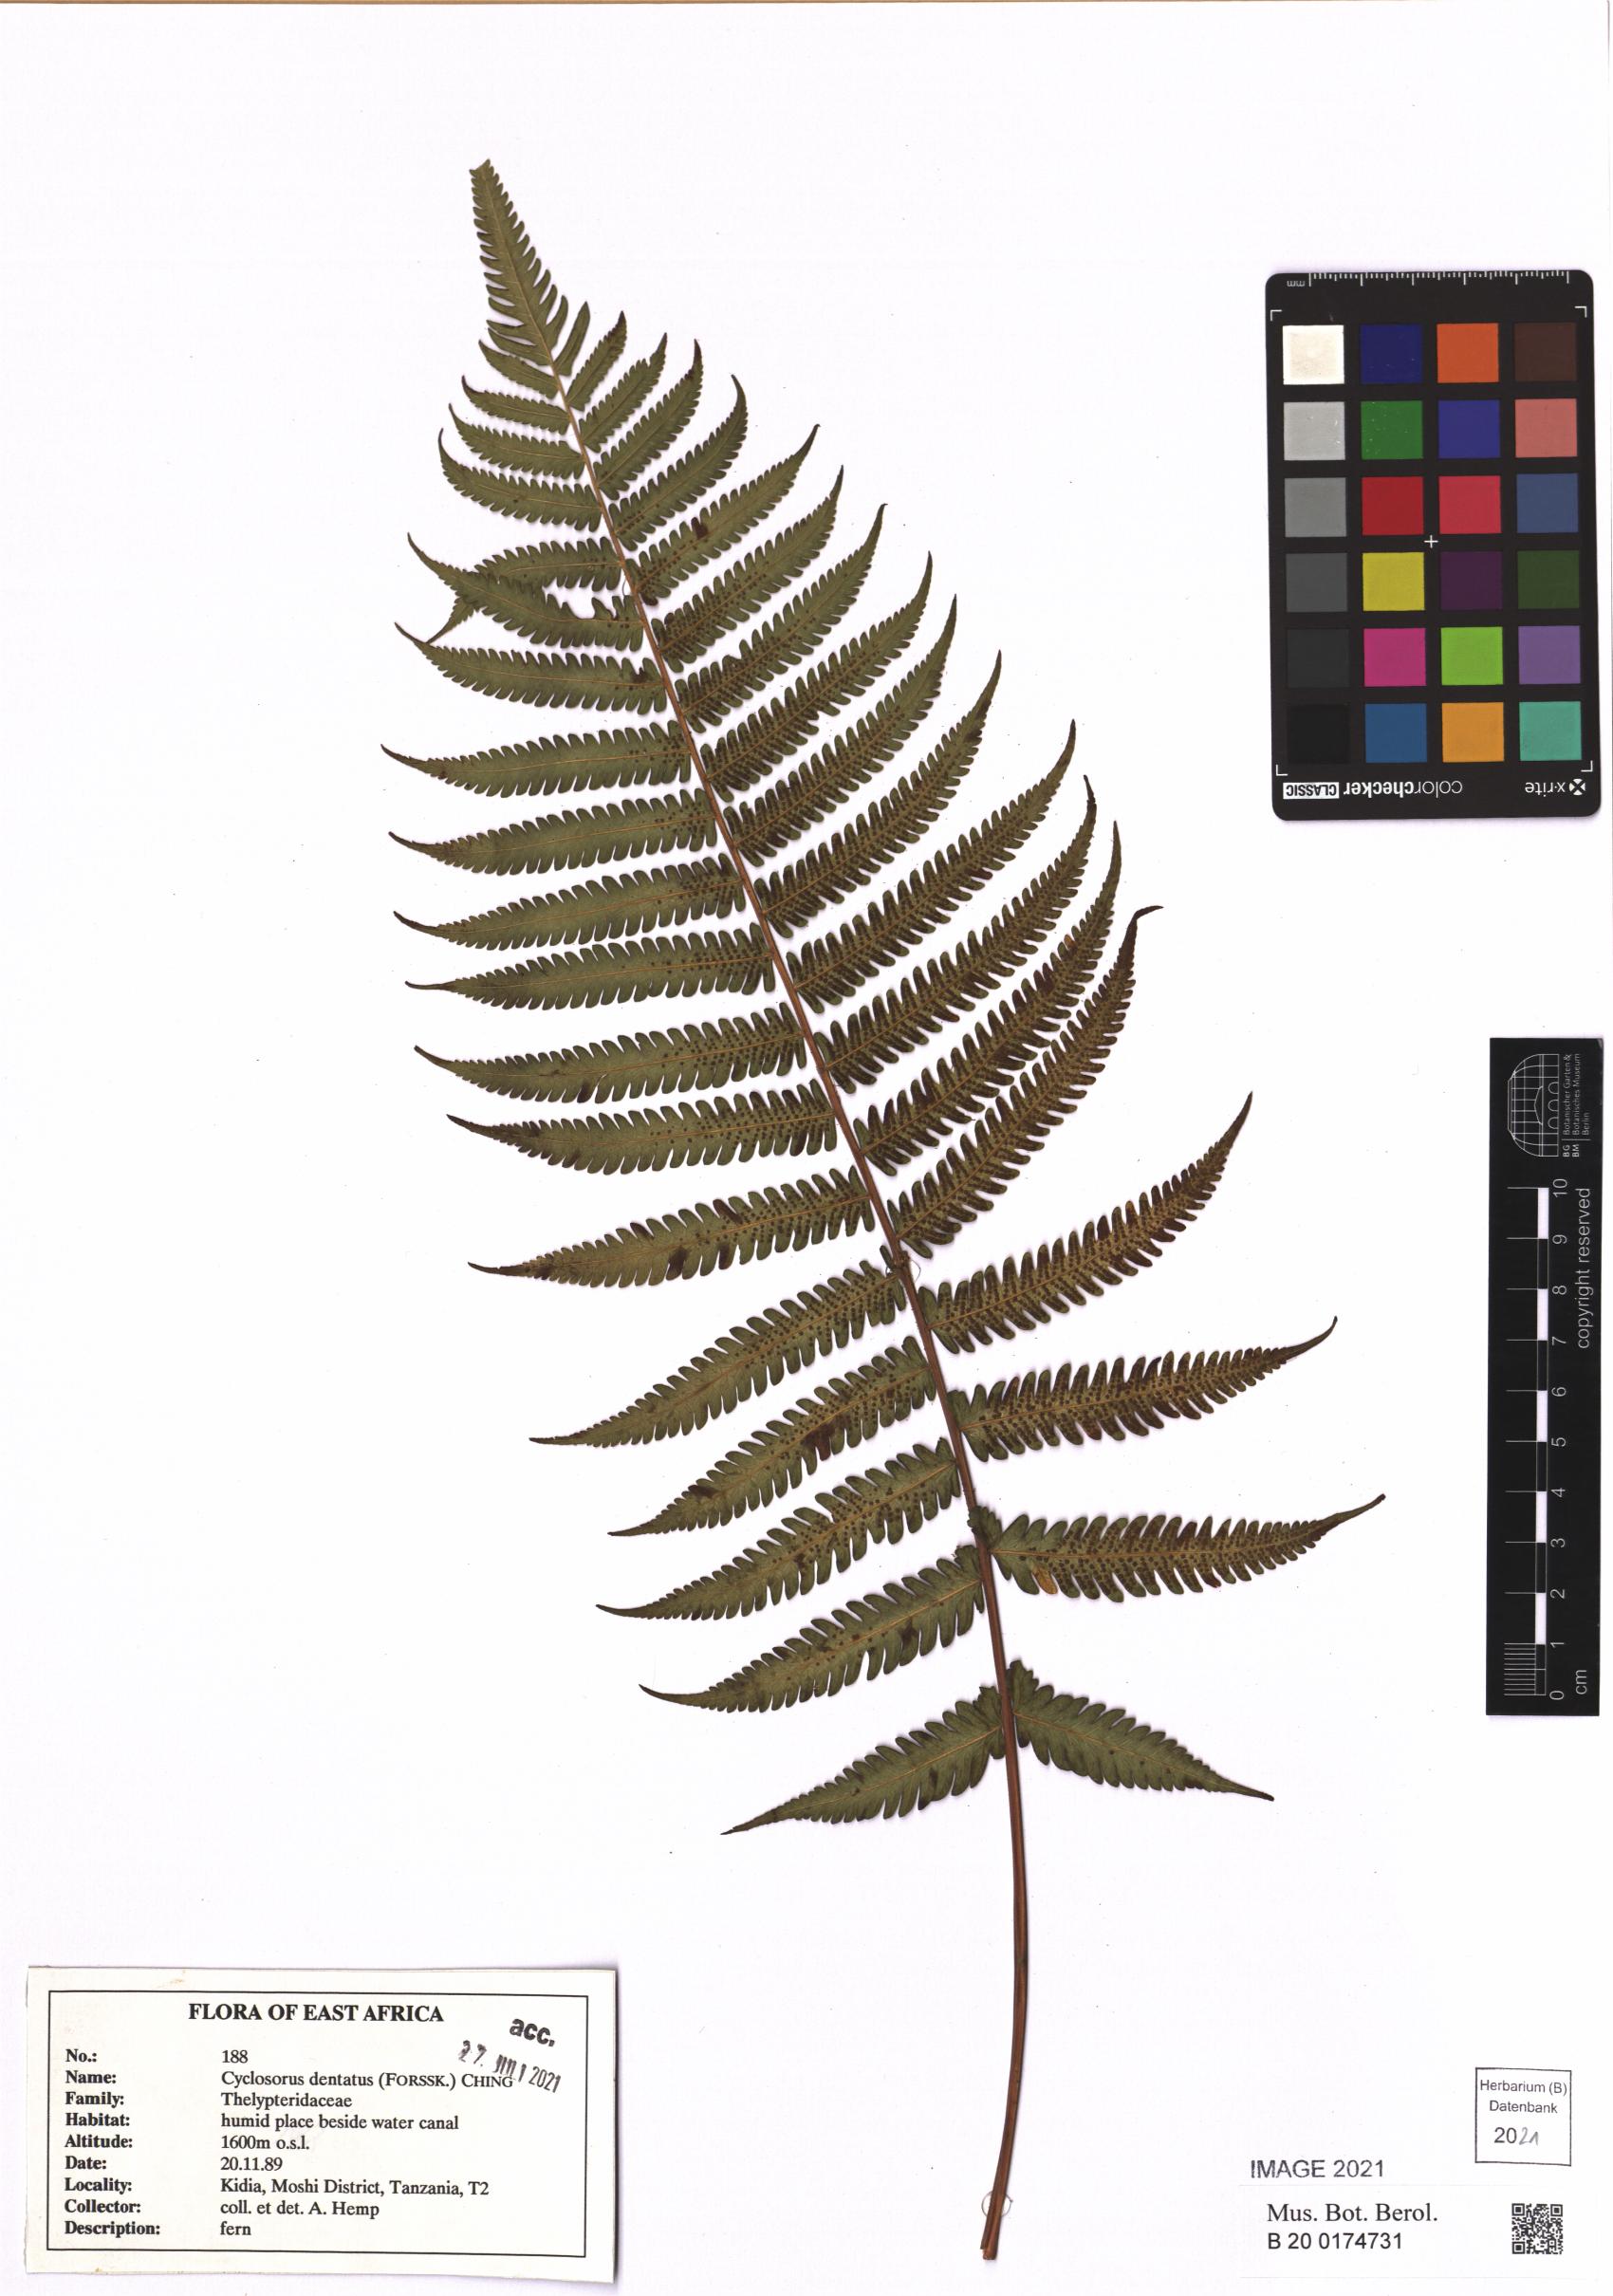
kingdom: Plantae
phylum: Tracheophyta
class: Polypodiopsida
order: Polypodiales
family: Thelypteridaceae
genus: Christella
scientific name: Christella dentata
